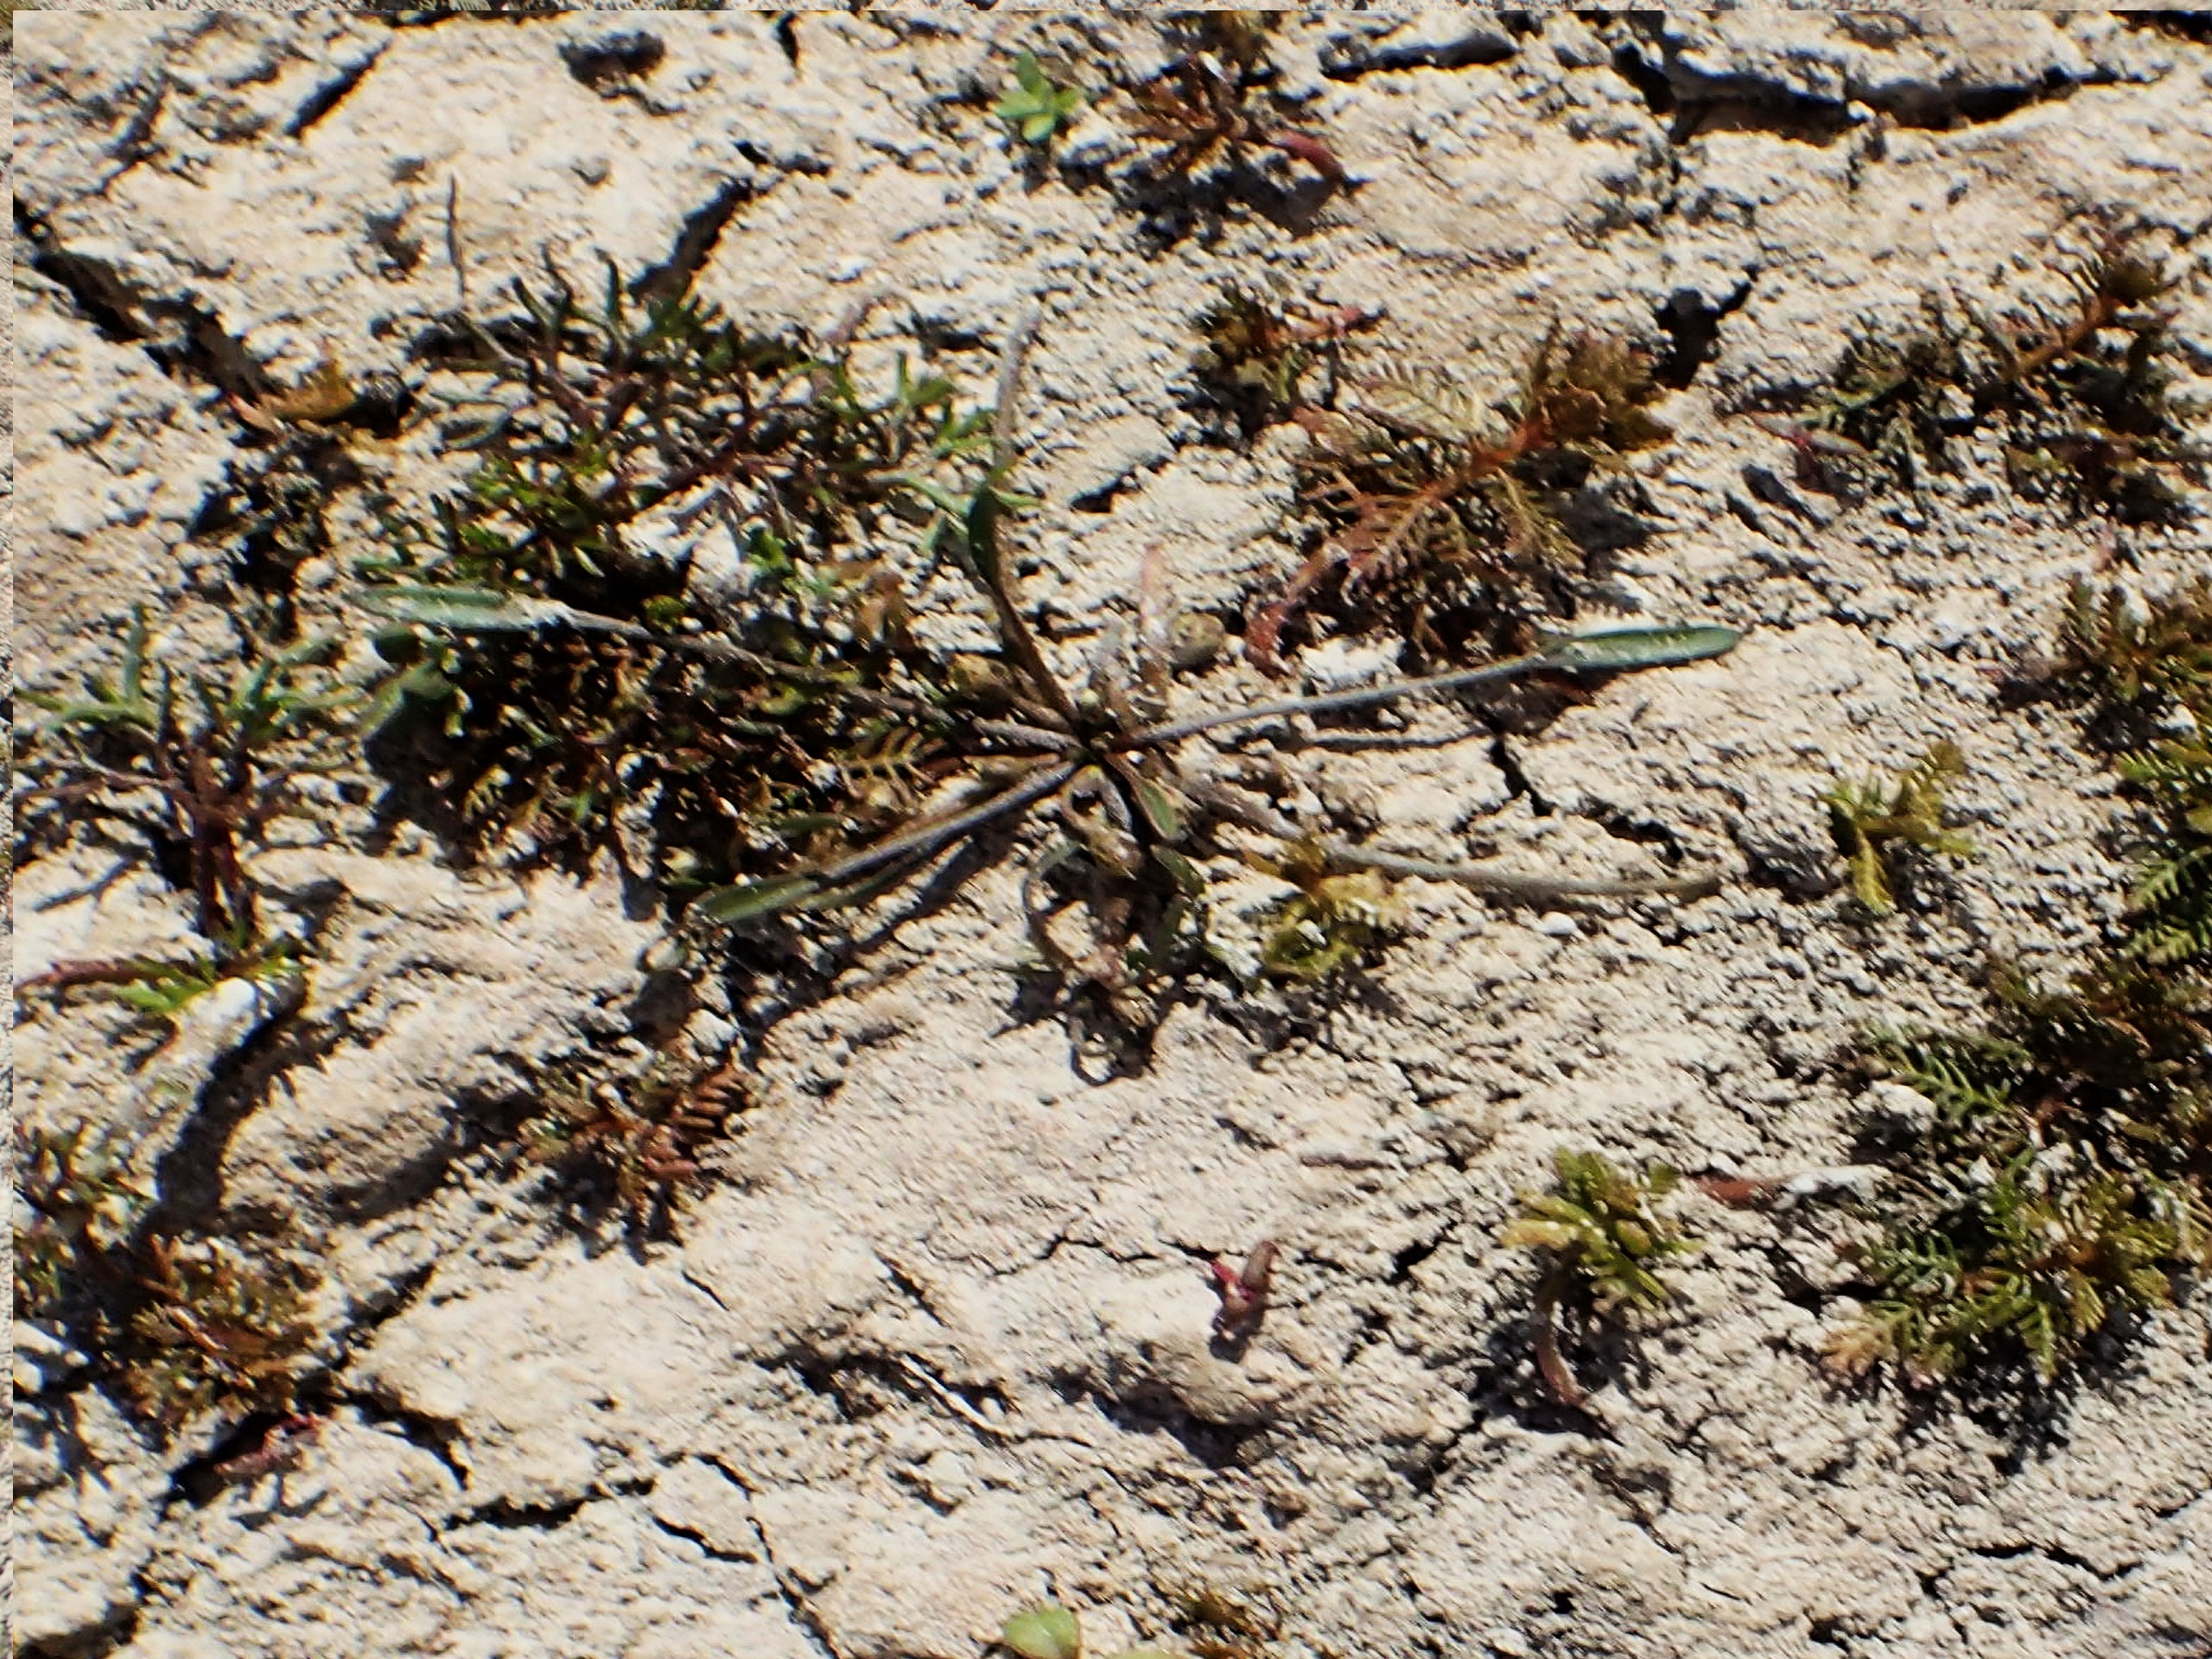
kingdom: Plantae
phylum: Tracheophyta
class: Magnoliopsida
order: Lamiales
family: Scrophulariaceae
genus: Limosella
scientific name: Limosella aquatica
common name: Dyndurt
